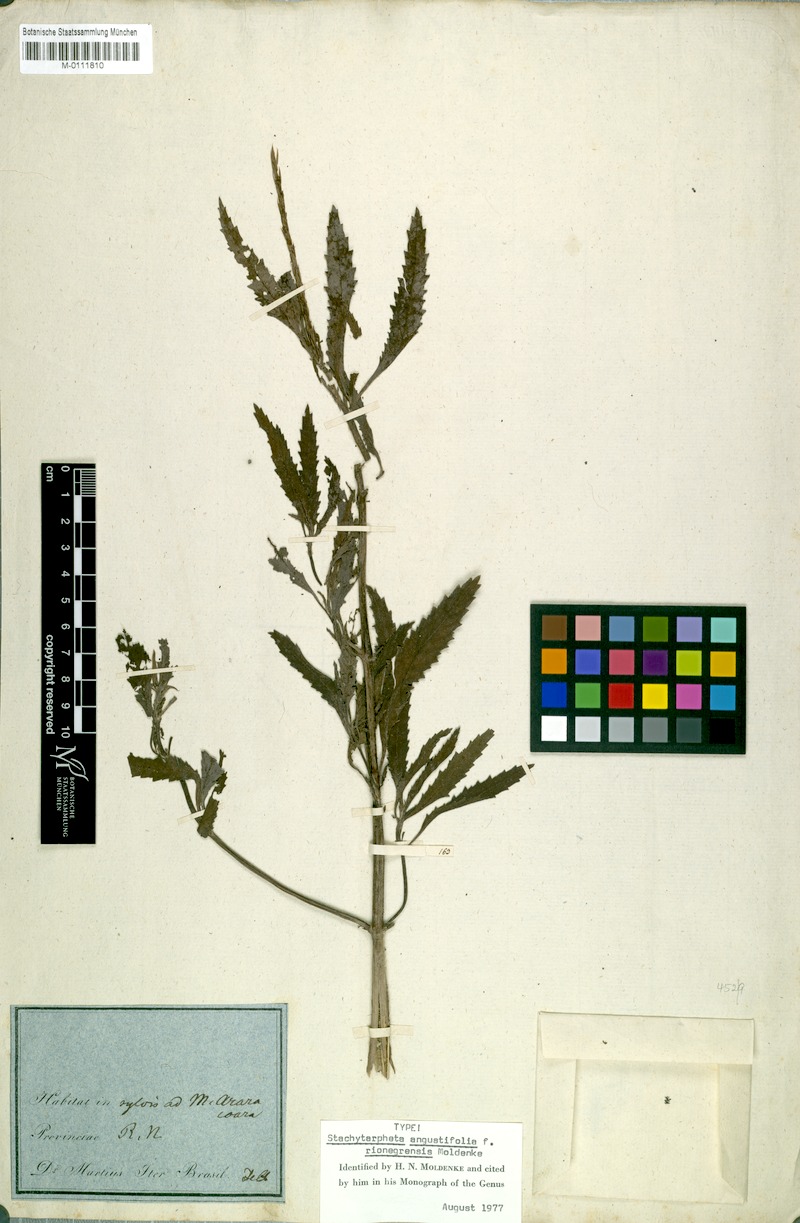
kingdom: Plantae
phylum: Tracheophyta
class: Magnoliopsida
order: Lamiales
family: Verbenaceae
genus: Stachytarpheta
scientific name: Stachytarpheta indica
